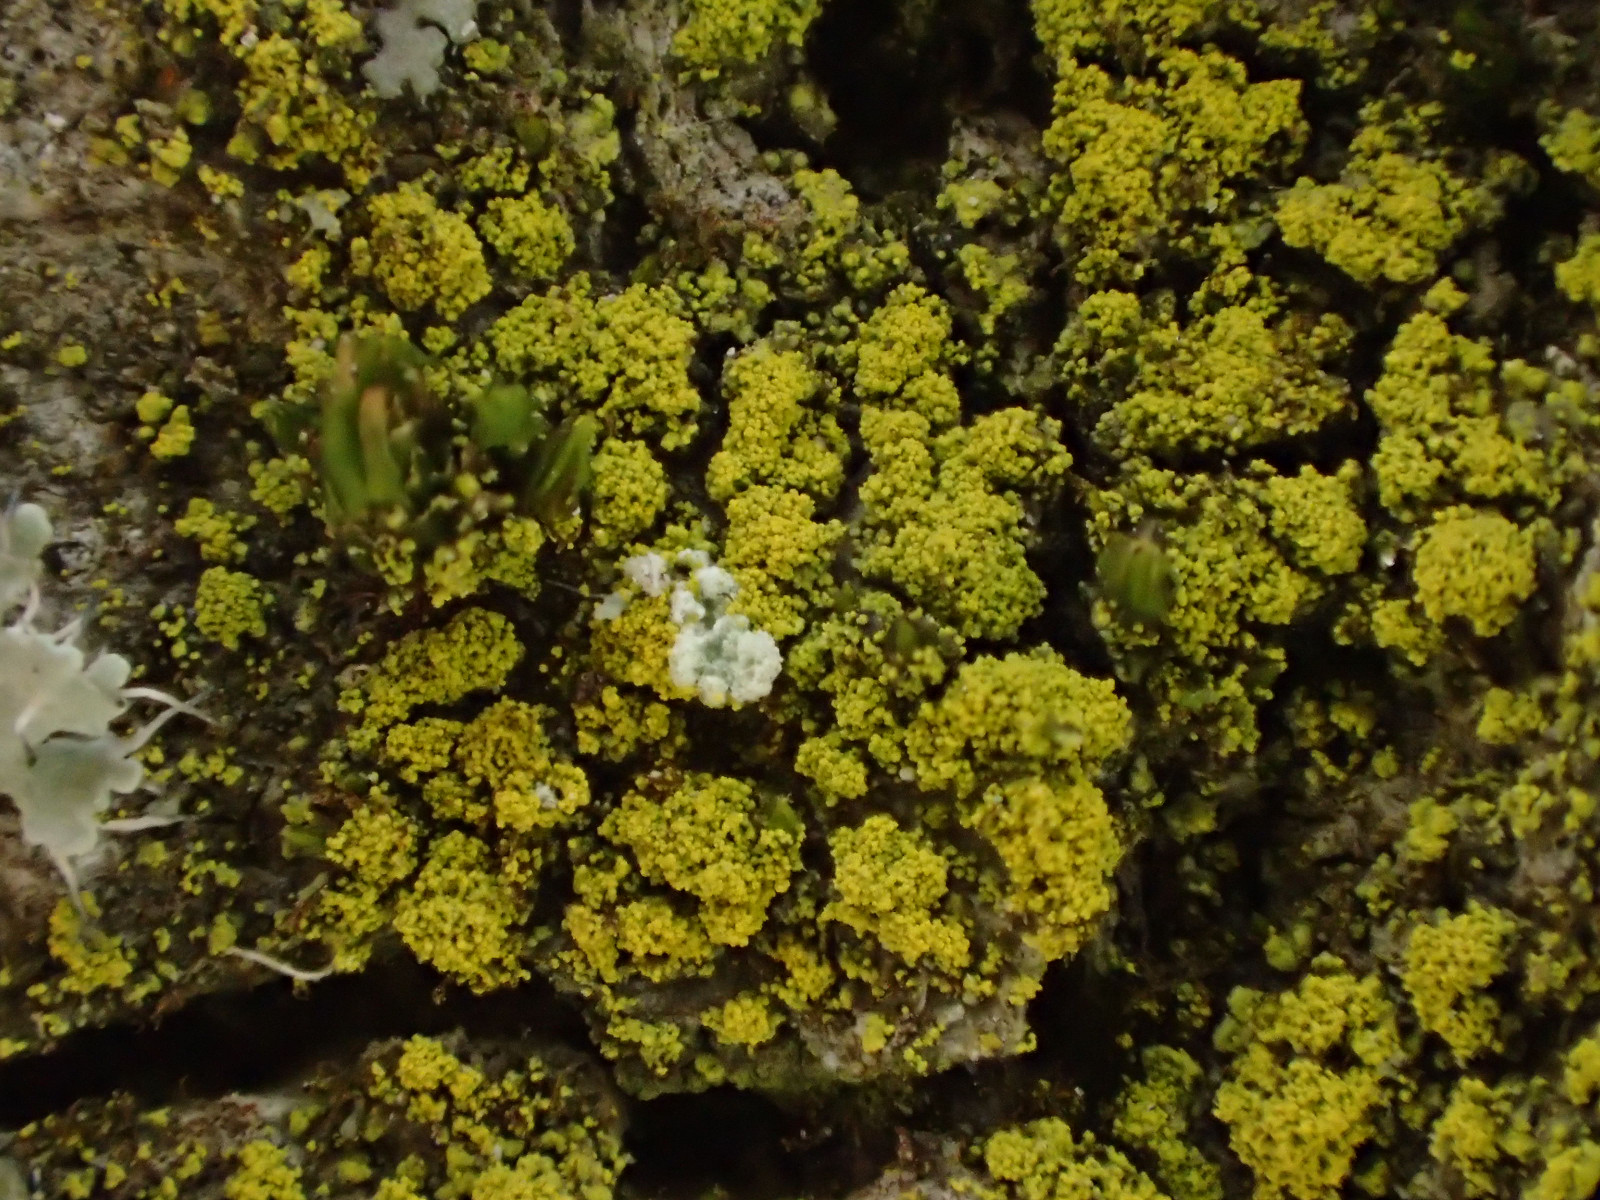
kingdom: Fungi
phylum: Ascomycota
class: Candelariomycetes
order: Candelariales
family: Candelariaceae
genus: Candelariella
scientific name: Candelariella reflexa
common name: grynskællet æggeblommelav
